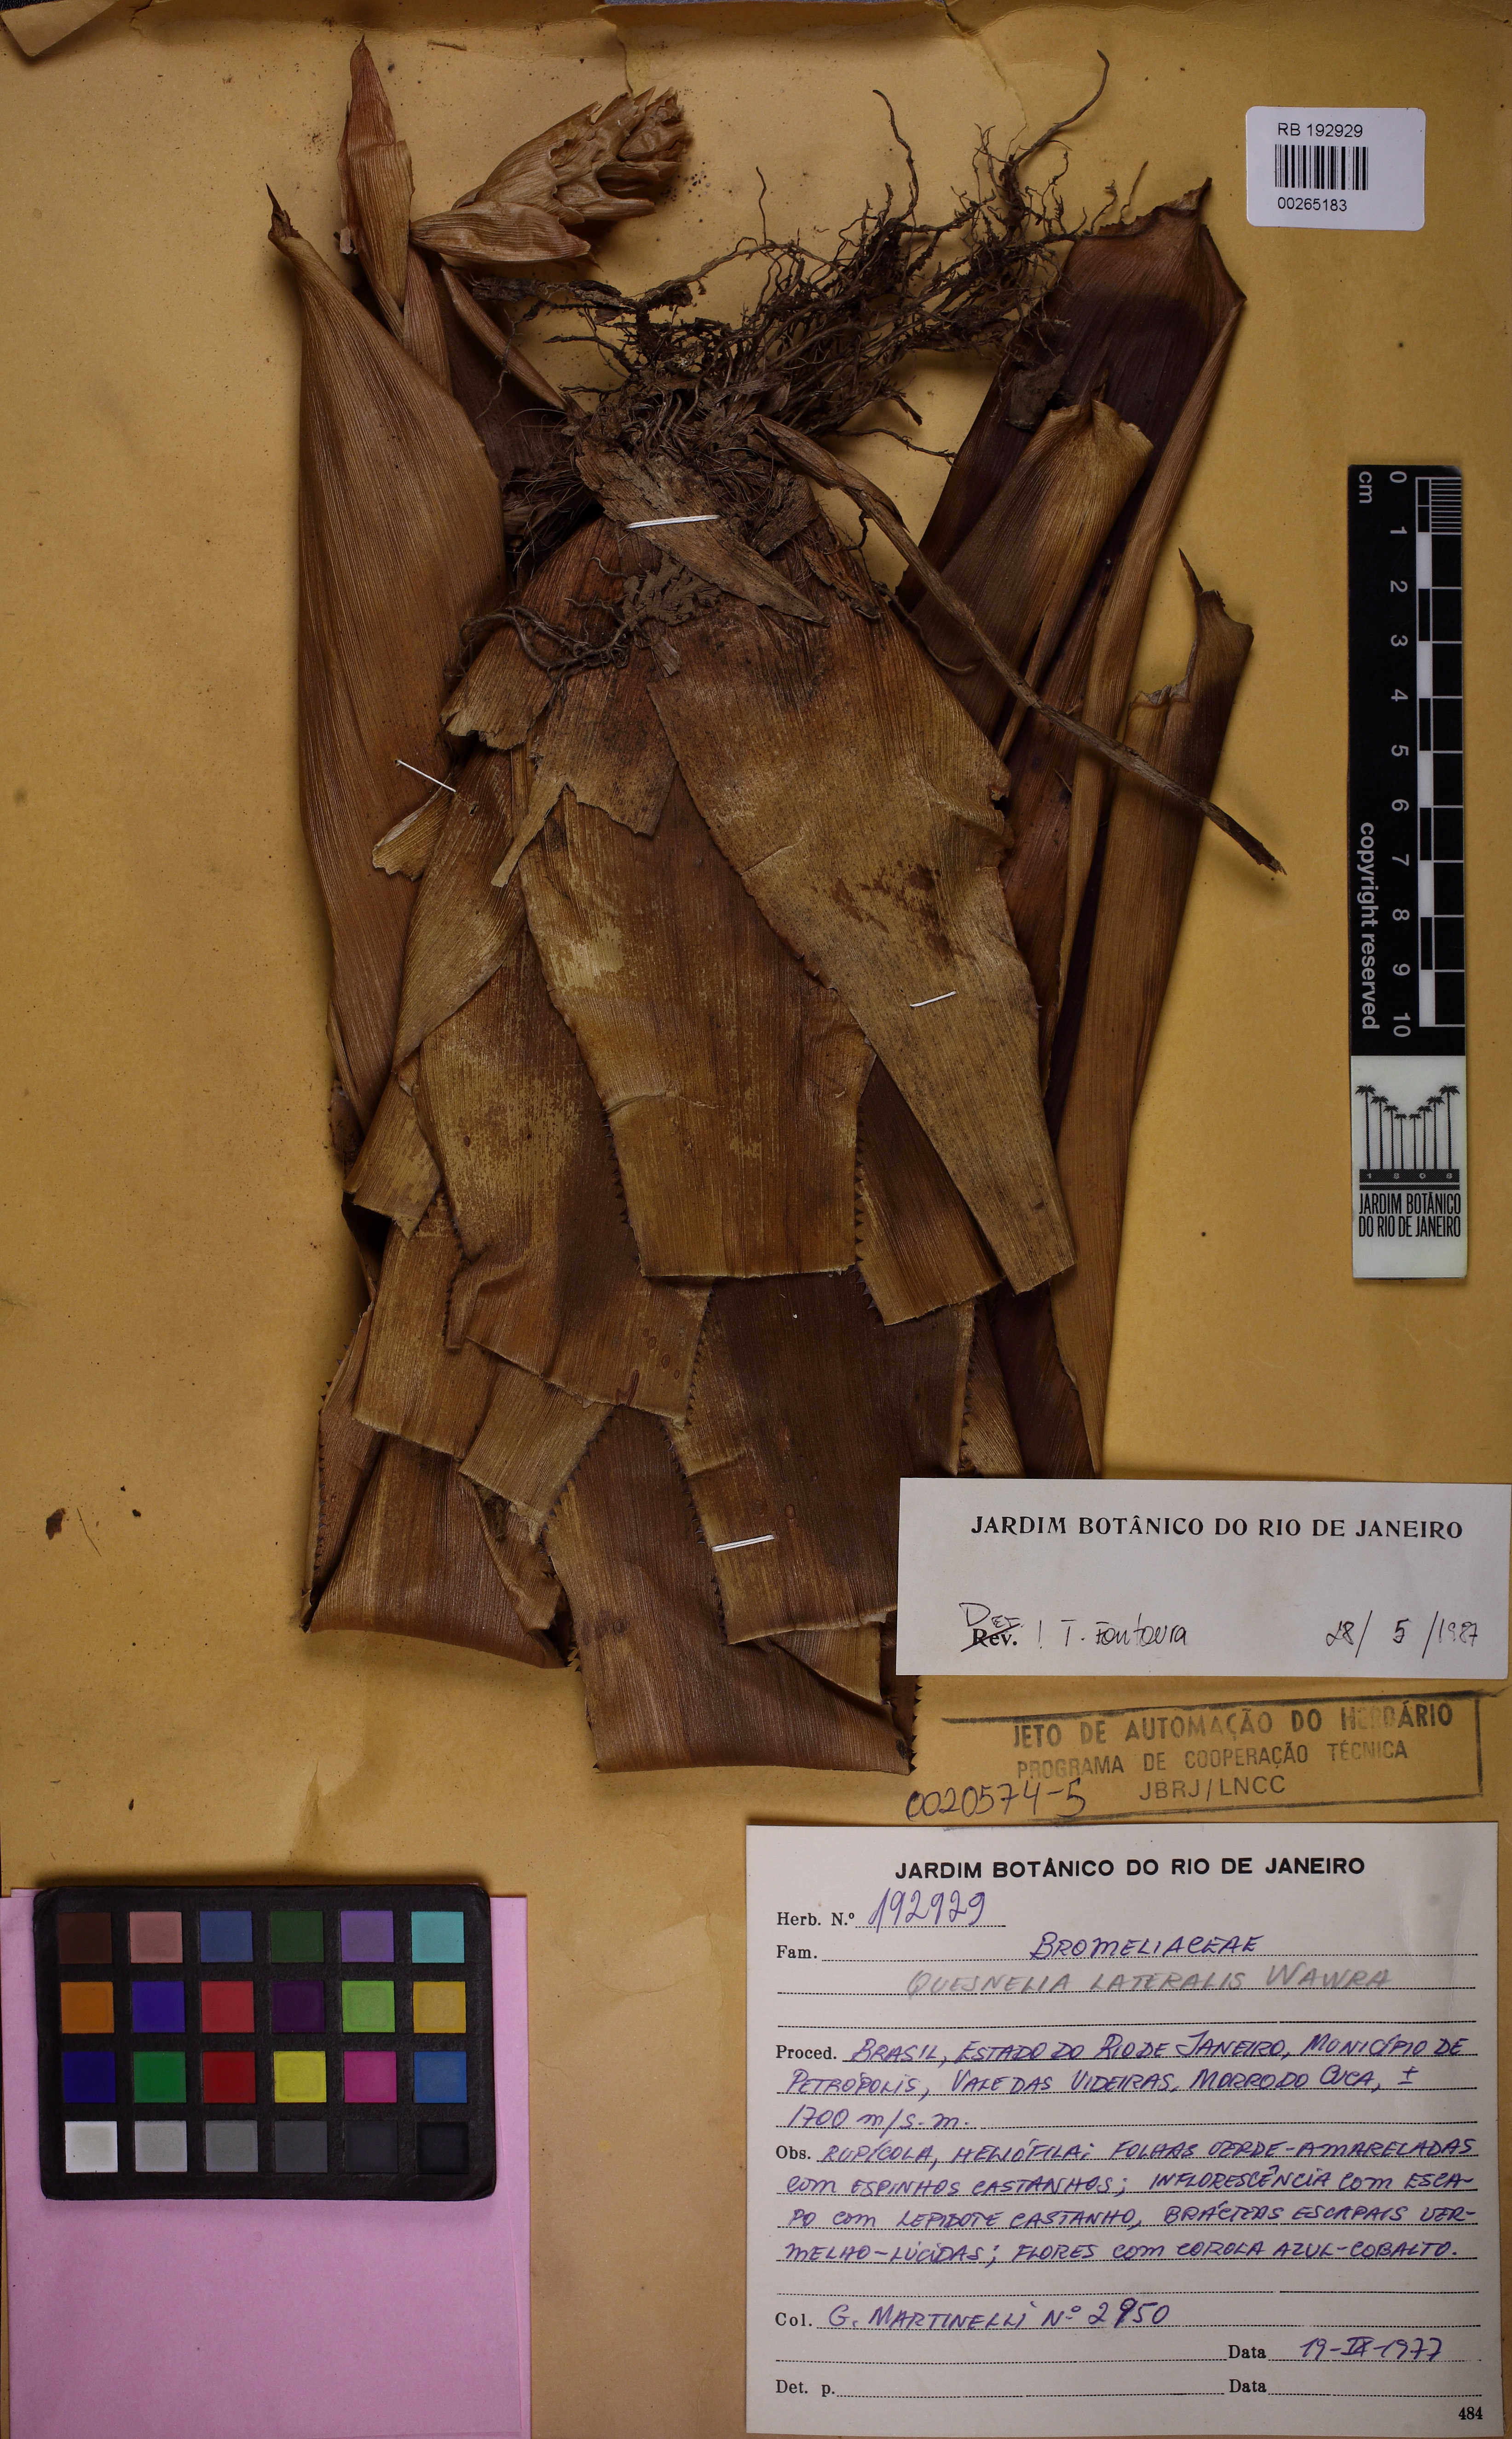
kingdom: Plantae
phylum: Tracheophyta
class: Liliopsida
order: Poales
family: Bromeliaceae
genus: Quesnelia
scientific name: Quesnelia lateralis
